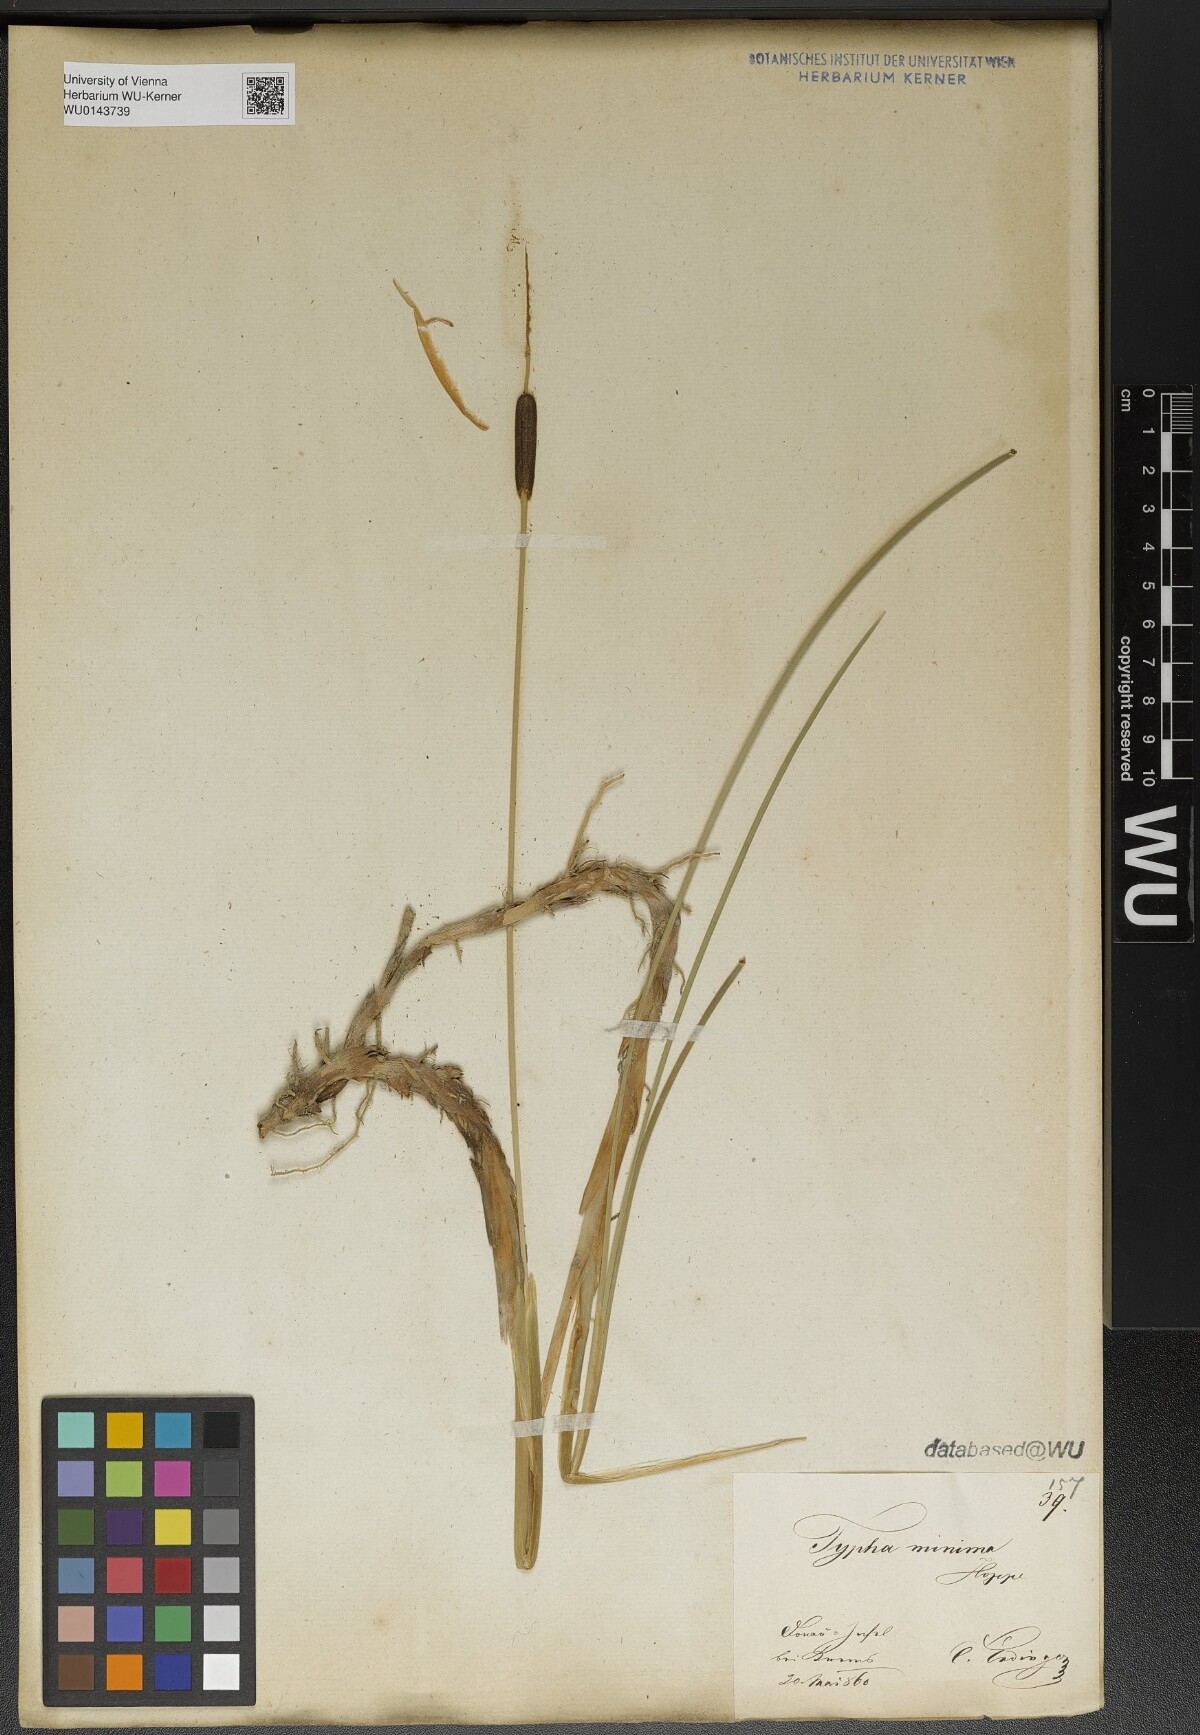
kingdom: Plantae
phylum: Tracheophyta
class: Liliopsida
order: Poales
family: Typhaceae
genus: Typha
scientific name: Typha minima
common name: Dwarf bulrush
